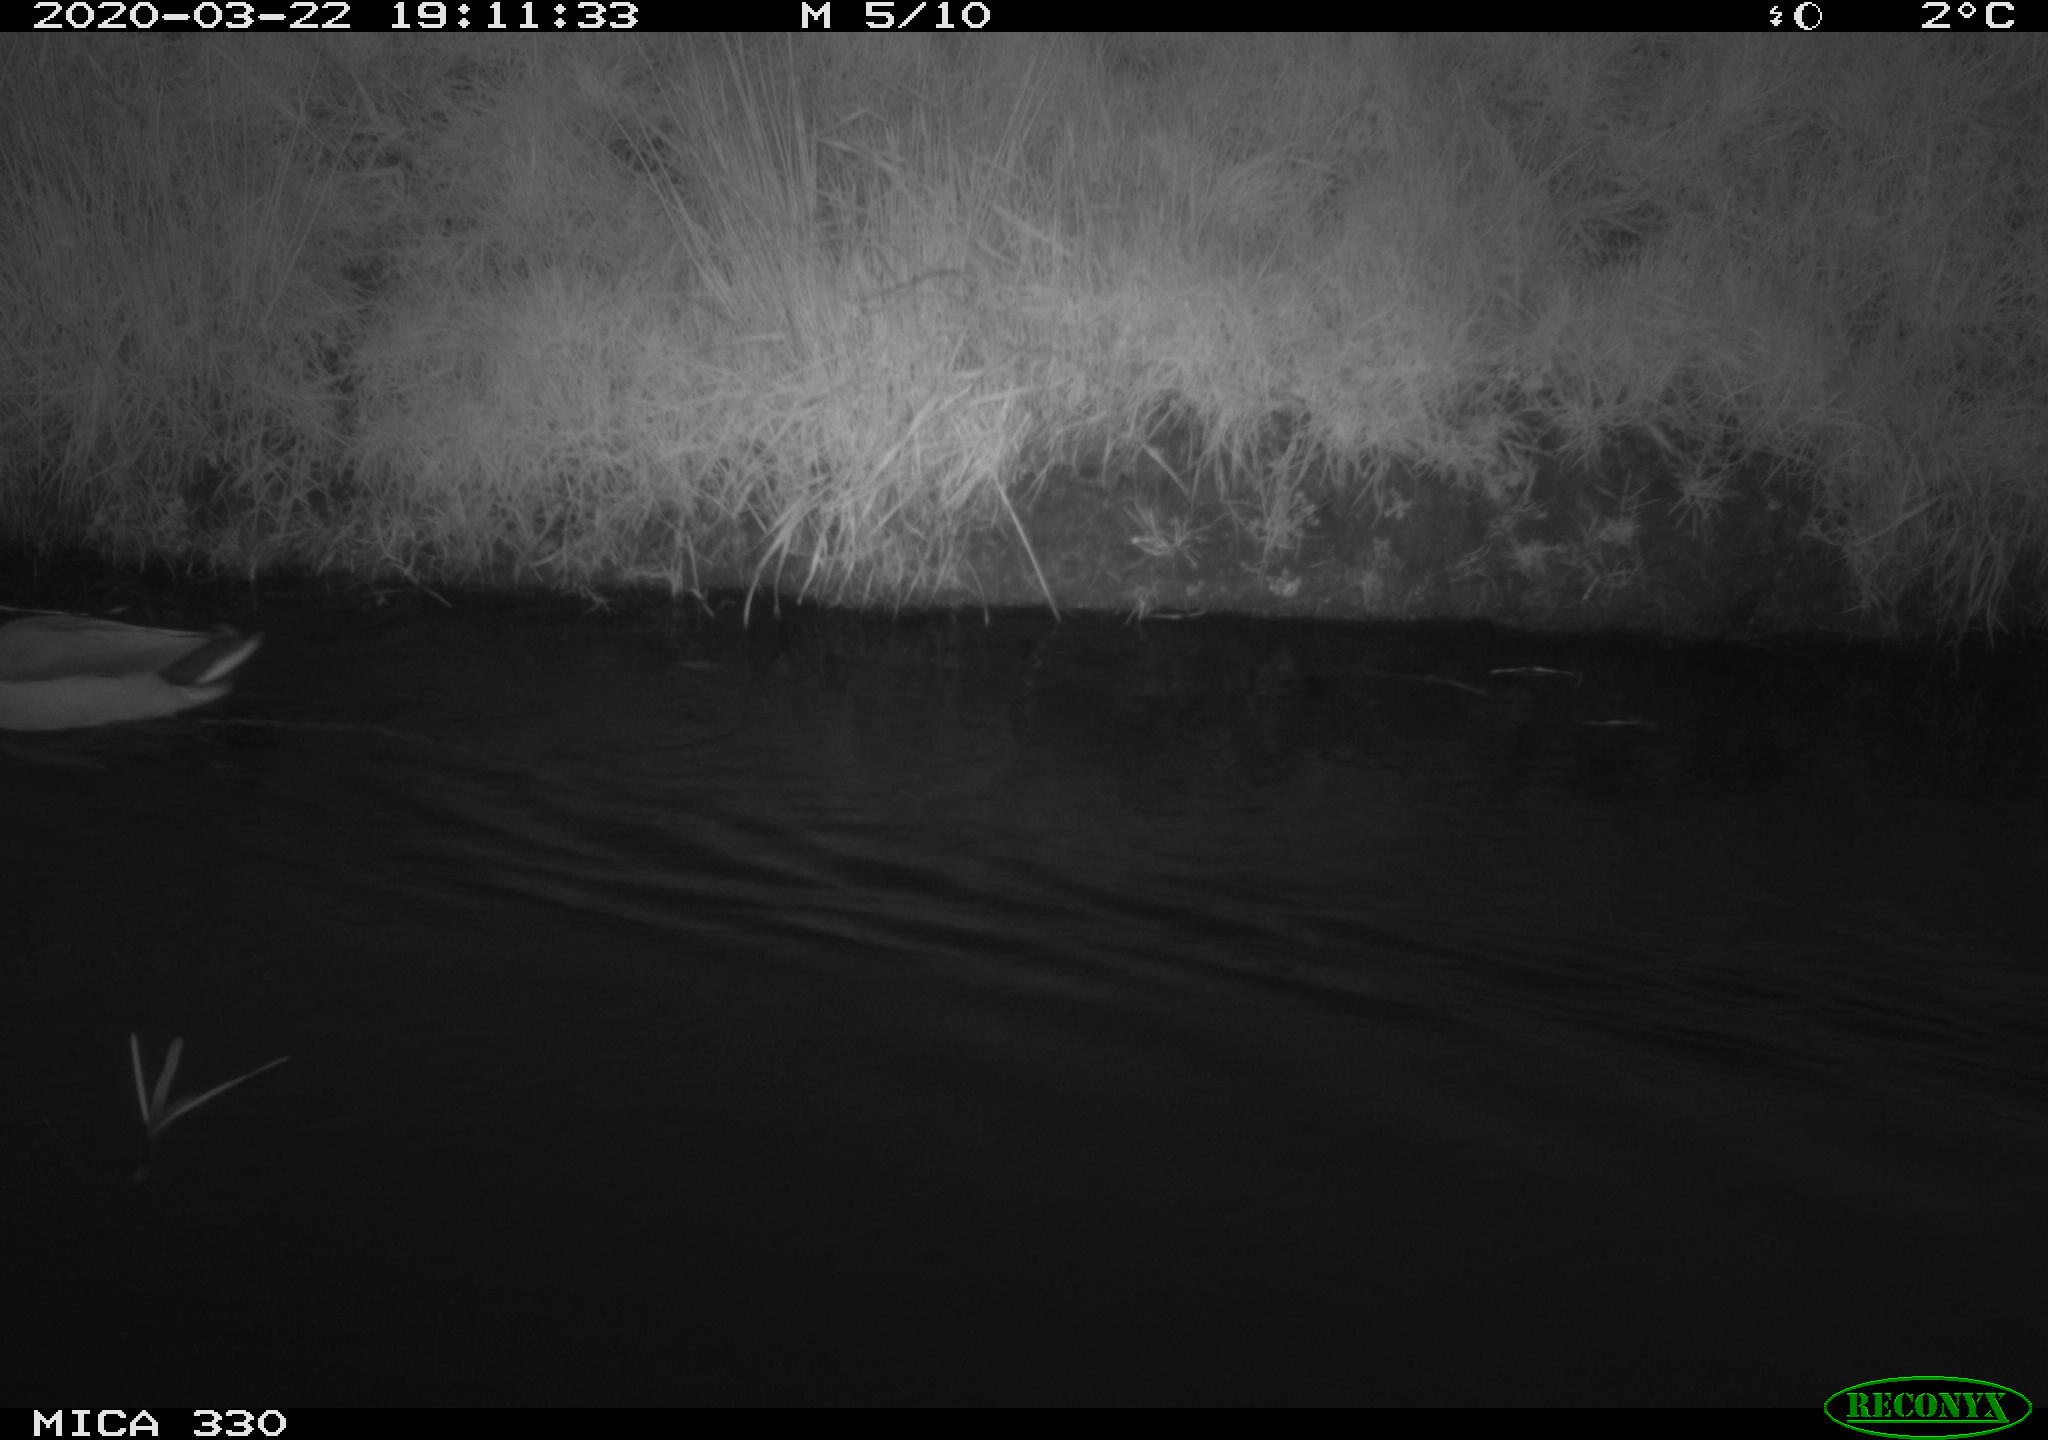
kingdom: Animalia
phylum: Chordata
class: Aves
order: Anseriformes
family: Anatidae
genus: Anas
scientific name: Anas platyrhynchos
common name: Mallard
